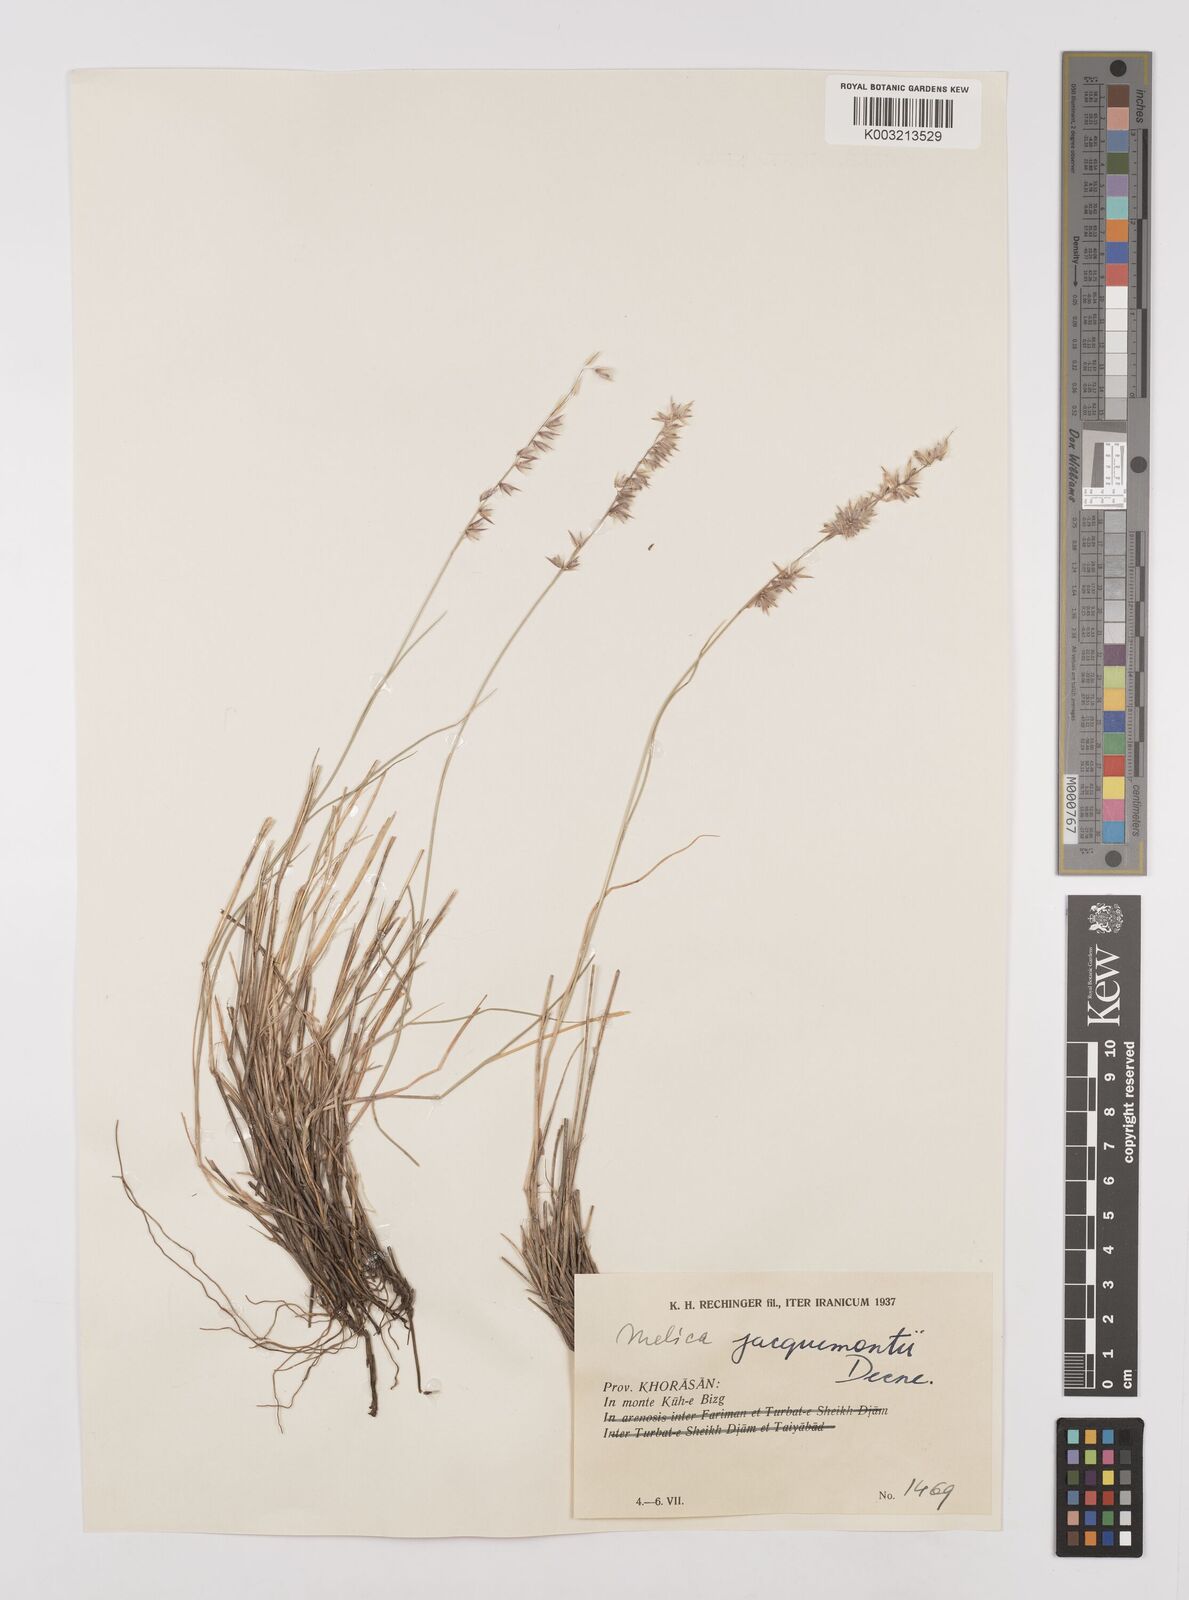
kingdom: Plantae
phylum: Tracheophyta
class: Liliopsida
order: Poales
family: Poaceae
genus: Melica
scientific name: Melica persica
